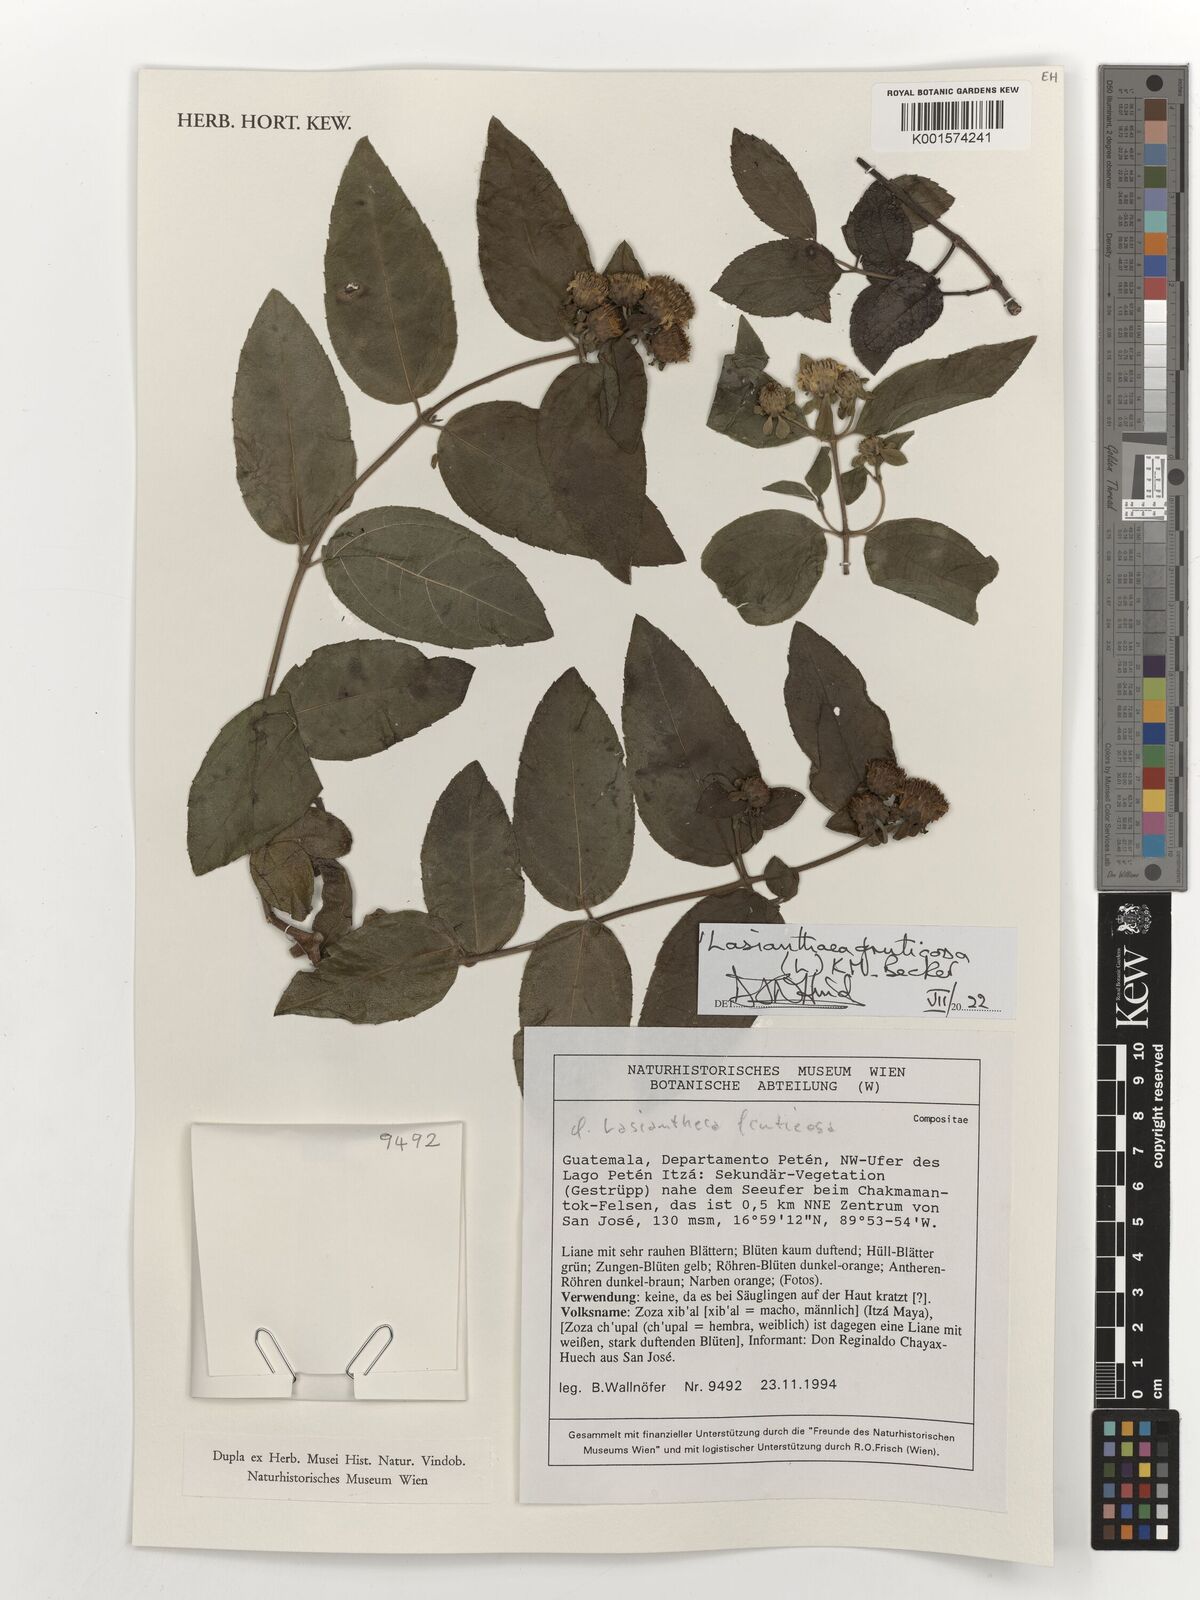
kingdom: Plantae
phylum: Tracheophyta
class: Magnoliopsida
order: Asterales
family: Asteraceae
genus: Lasianthaea
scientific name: Lasianthaea fruticosa
